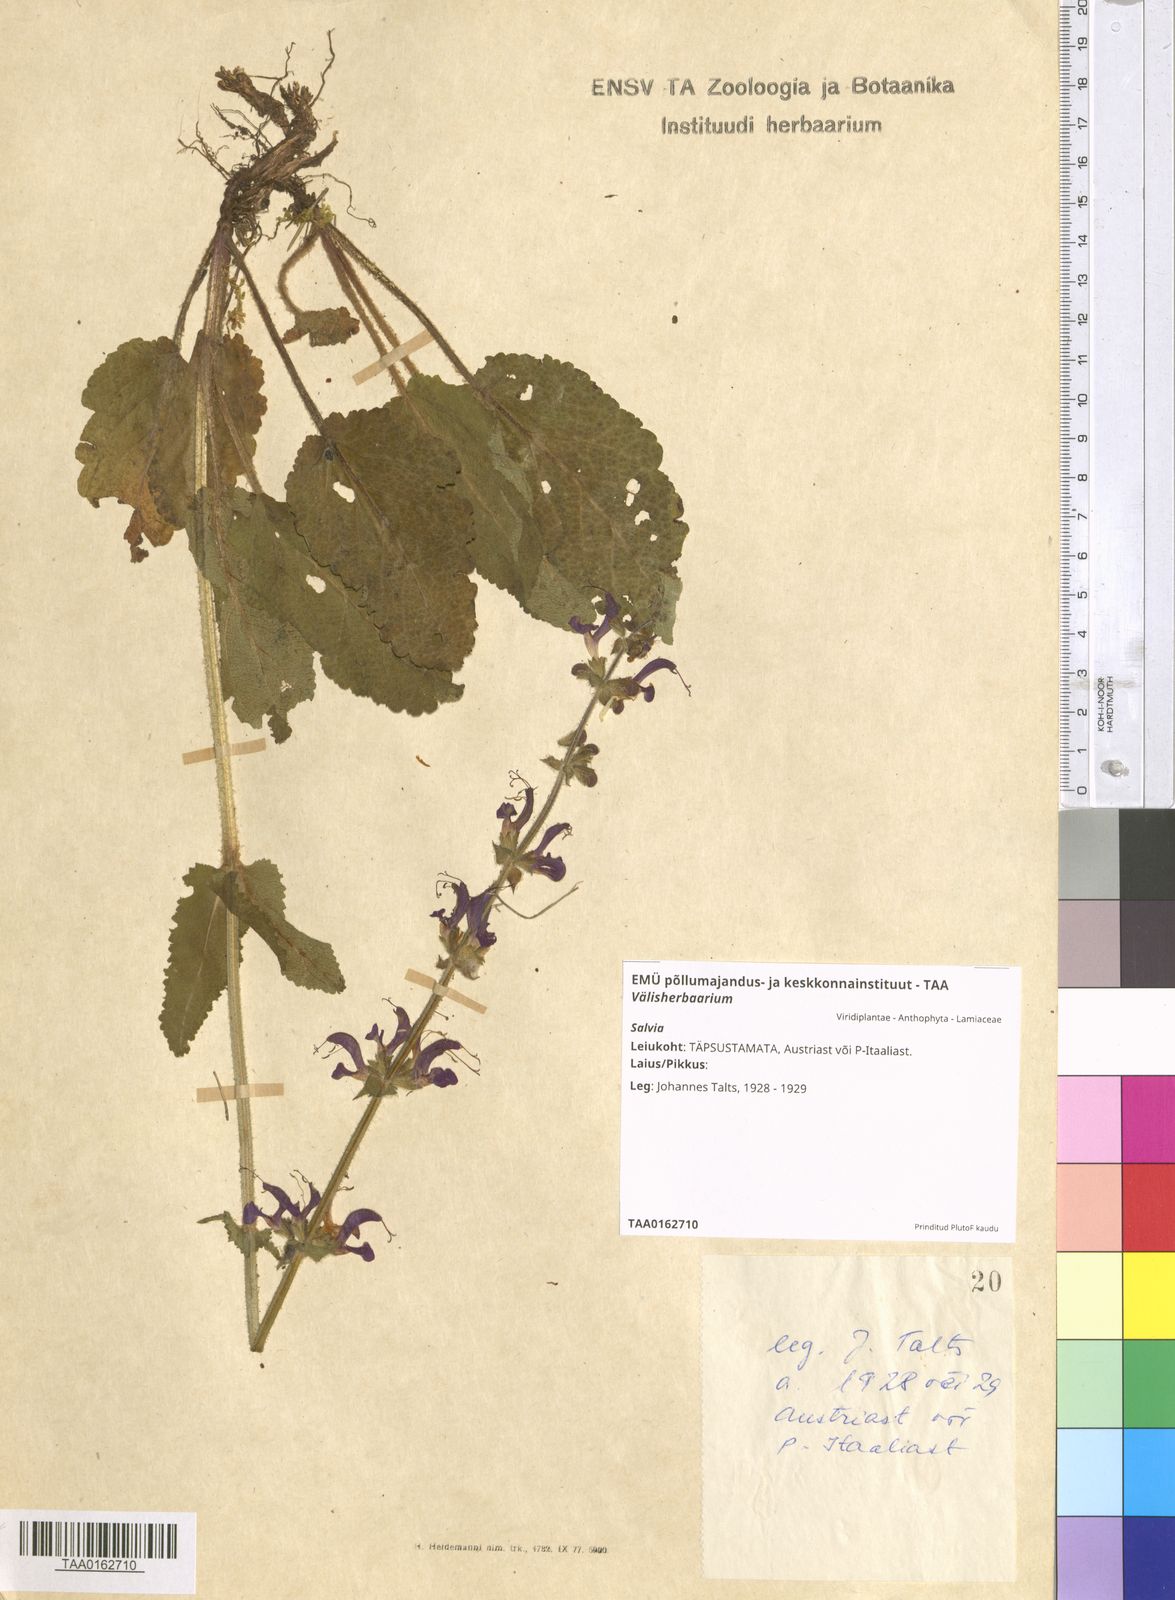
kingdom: Plantae
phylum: Tracheophyta
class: Magnoliopsida
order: Lamiales
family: Lamiaceae
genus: Salvia
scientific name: Salvia
